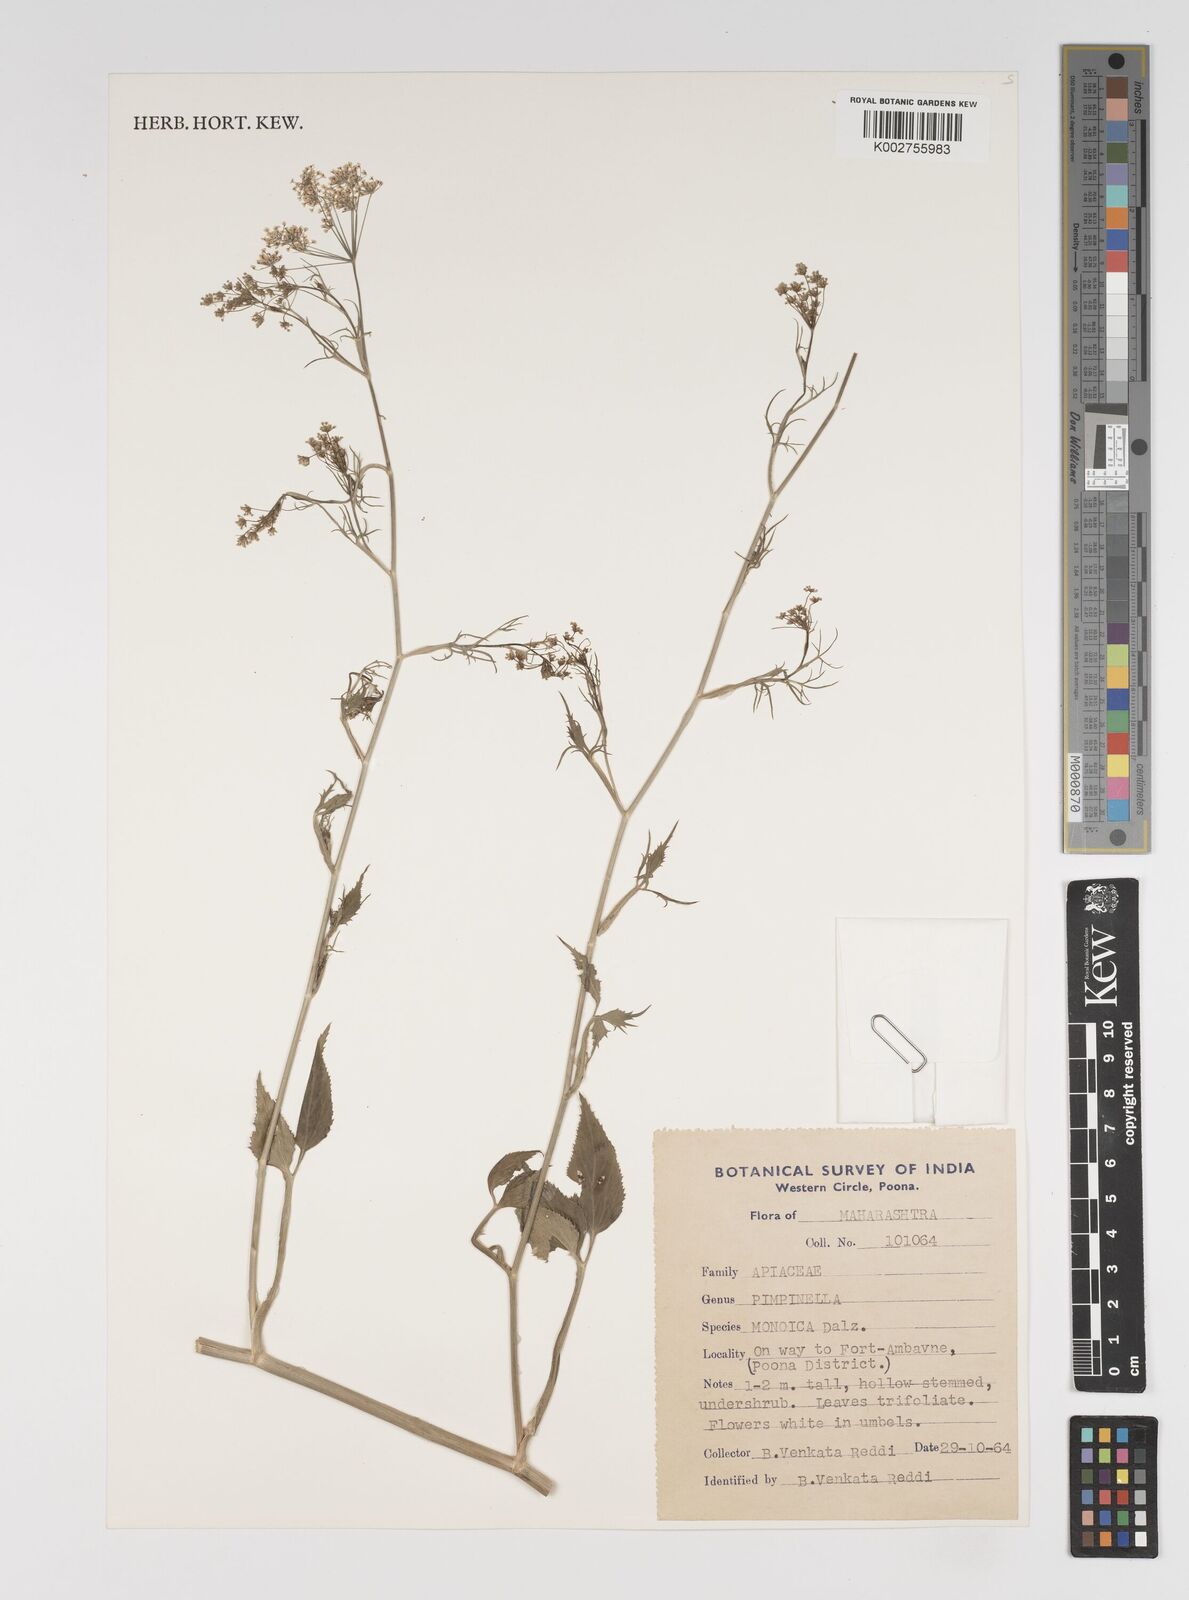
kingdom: Plantae
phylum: Tracheophyta
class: Magnoliopsida
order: Apiales
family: Apiaceae
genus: Pimpinella
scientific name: Pimpinella wallichiana
